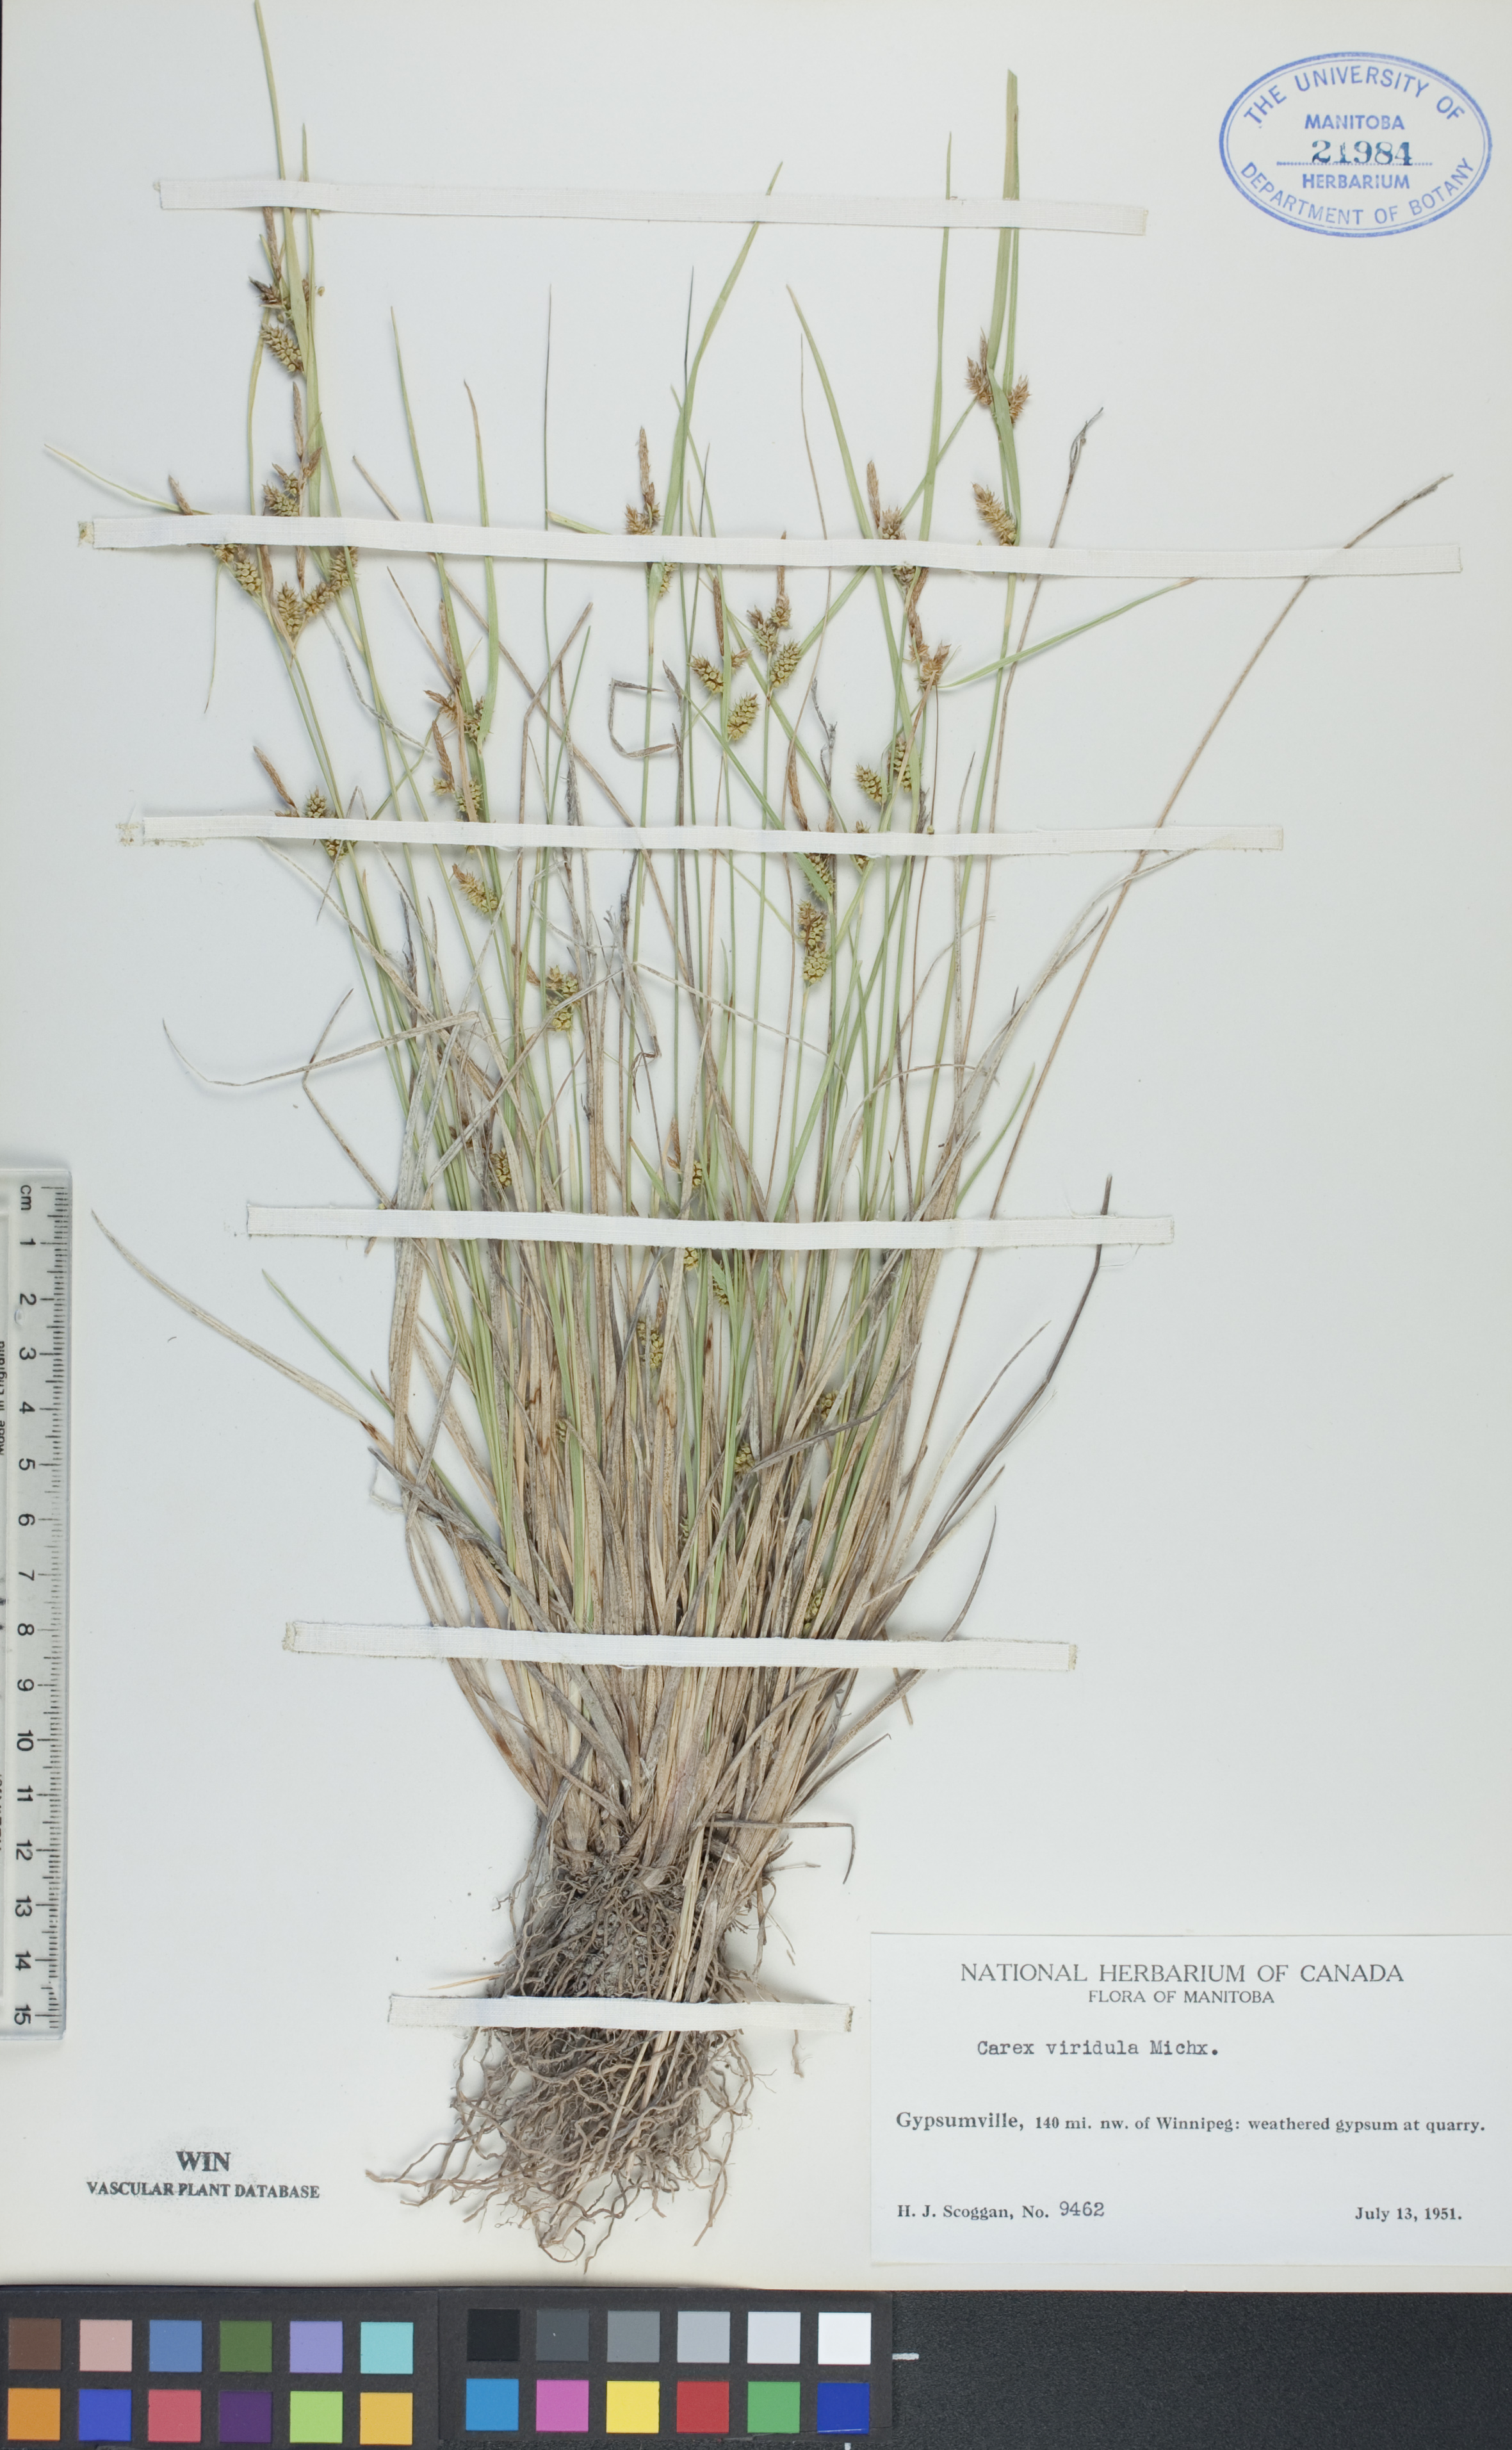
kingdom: Plantae
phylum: Tracheophyta
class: Liliopsida
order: Poales
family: Cyperaceae
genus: Carex
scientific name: Carex oederi
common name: Common & small-fruited yellow-sedge
